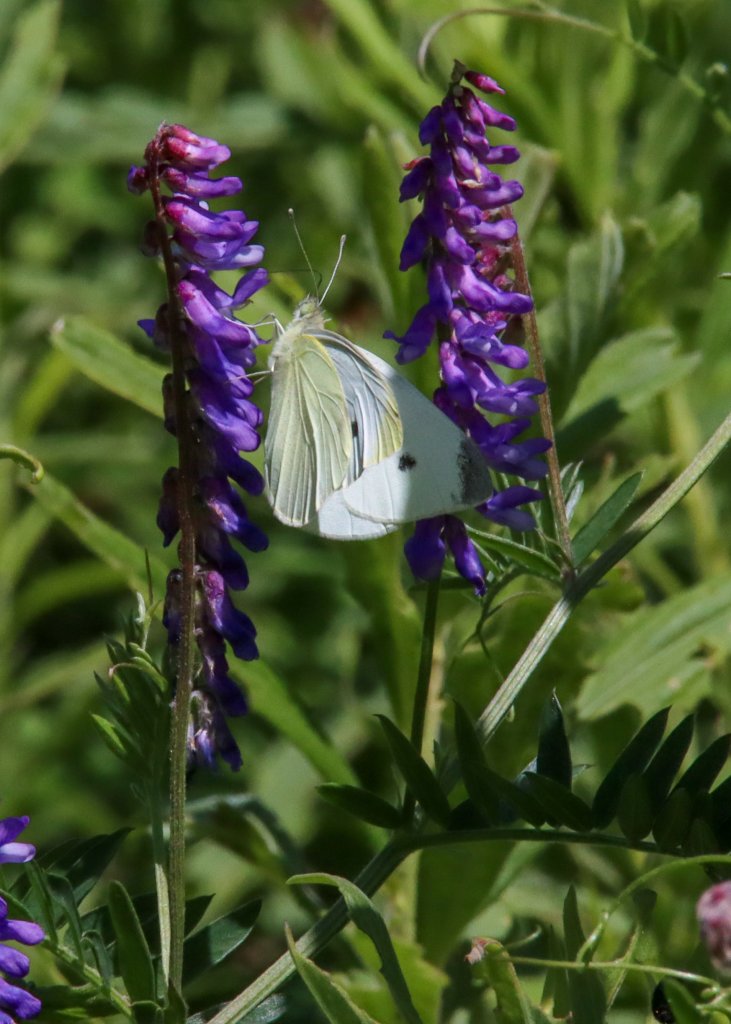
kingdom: Animalia
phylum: Arthropoda
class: Insecta
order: Lepidoptera
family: Pieridae
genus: Pieris
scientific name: Pieris rapae
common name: Cabbage White
